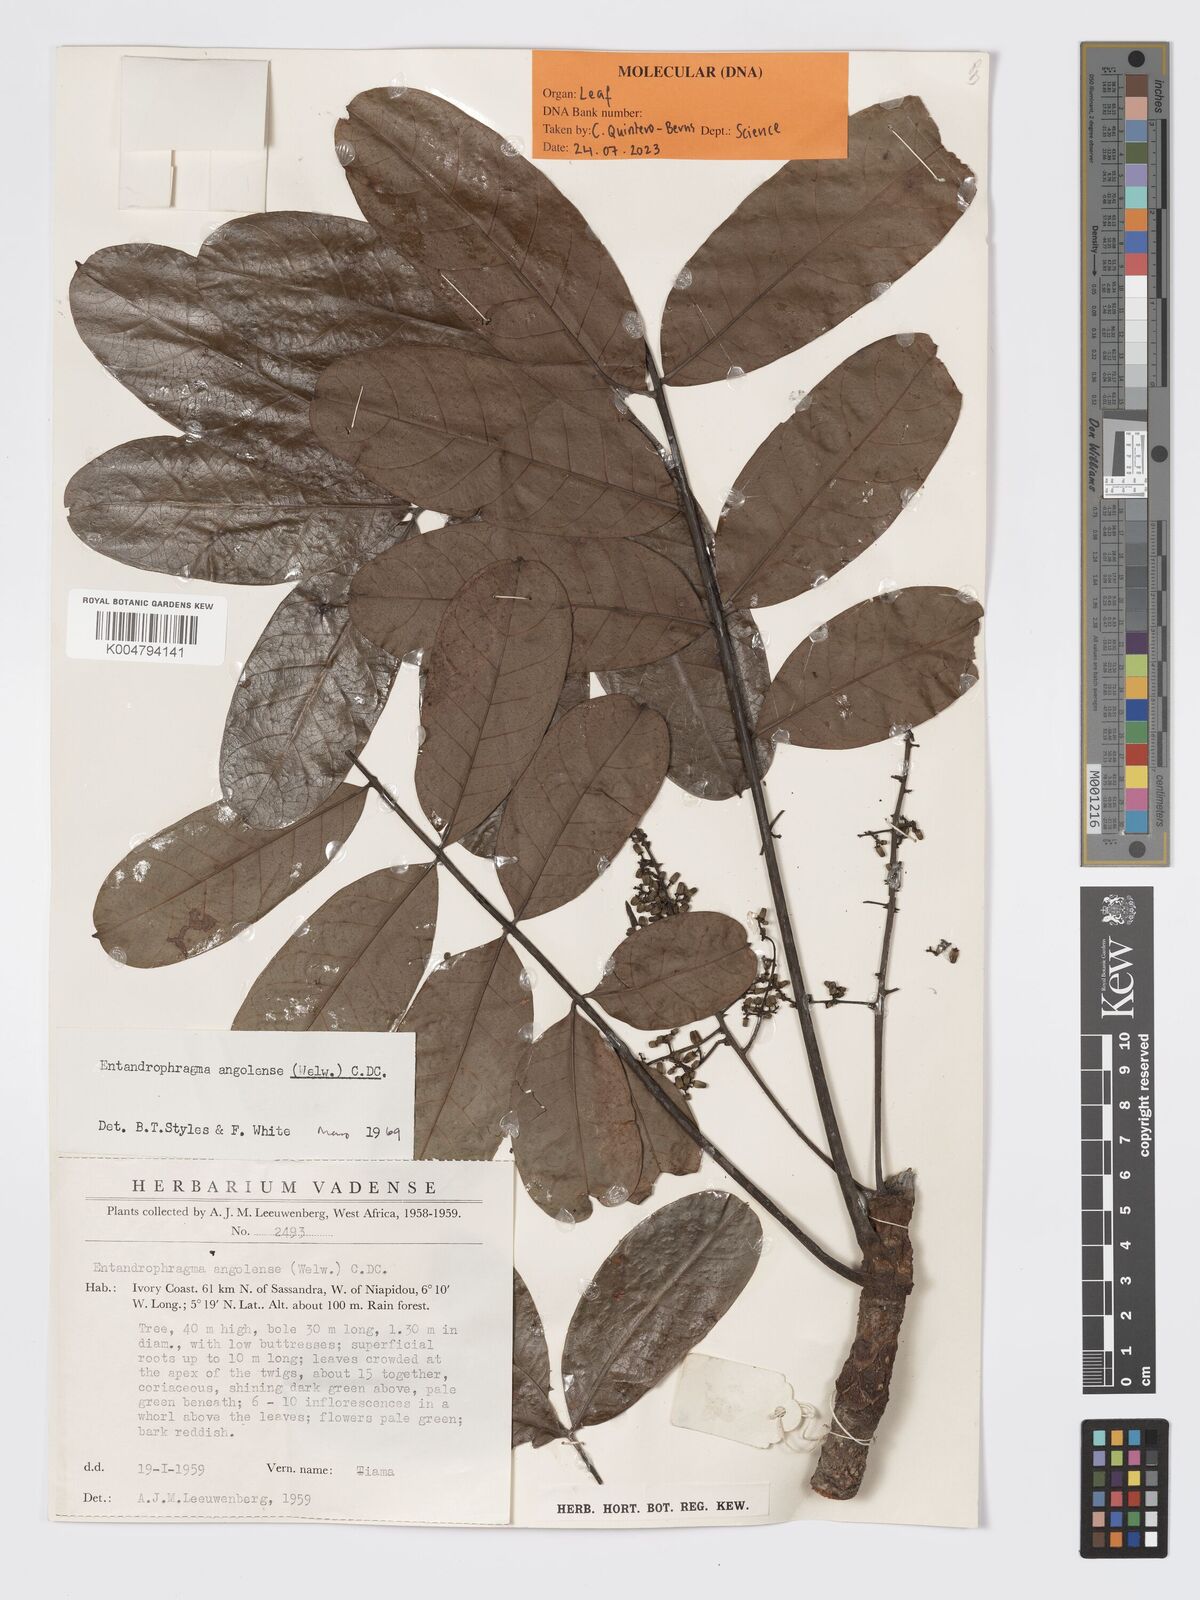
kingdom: Plantae
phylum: Tracheophyta
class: Magnoliopsida
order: Sapindales
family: Meliaceae
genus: Entandrophragma
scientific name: Entandrophragma angolense
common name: African mahogany
